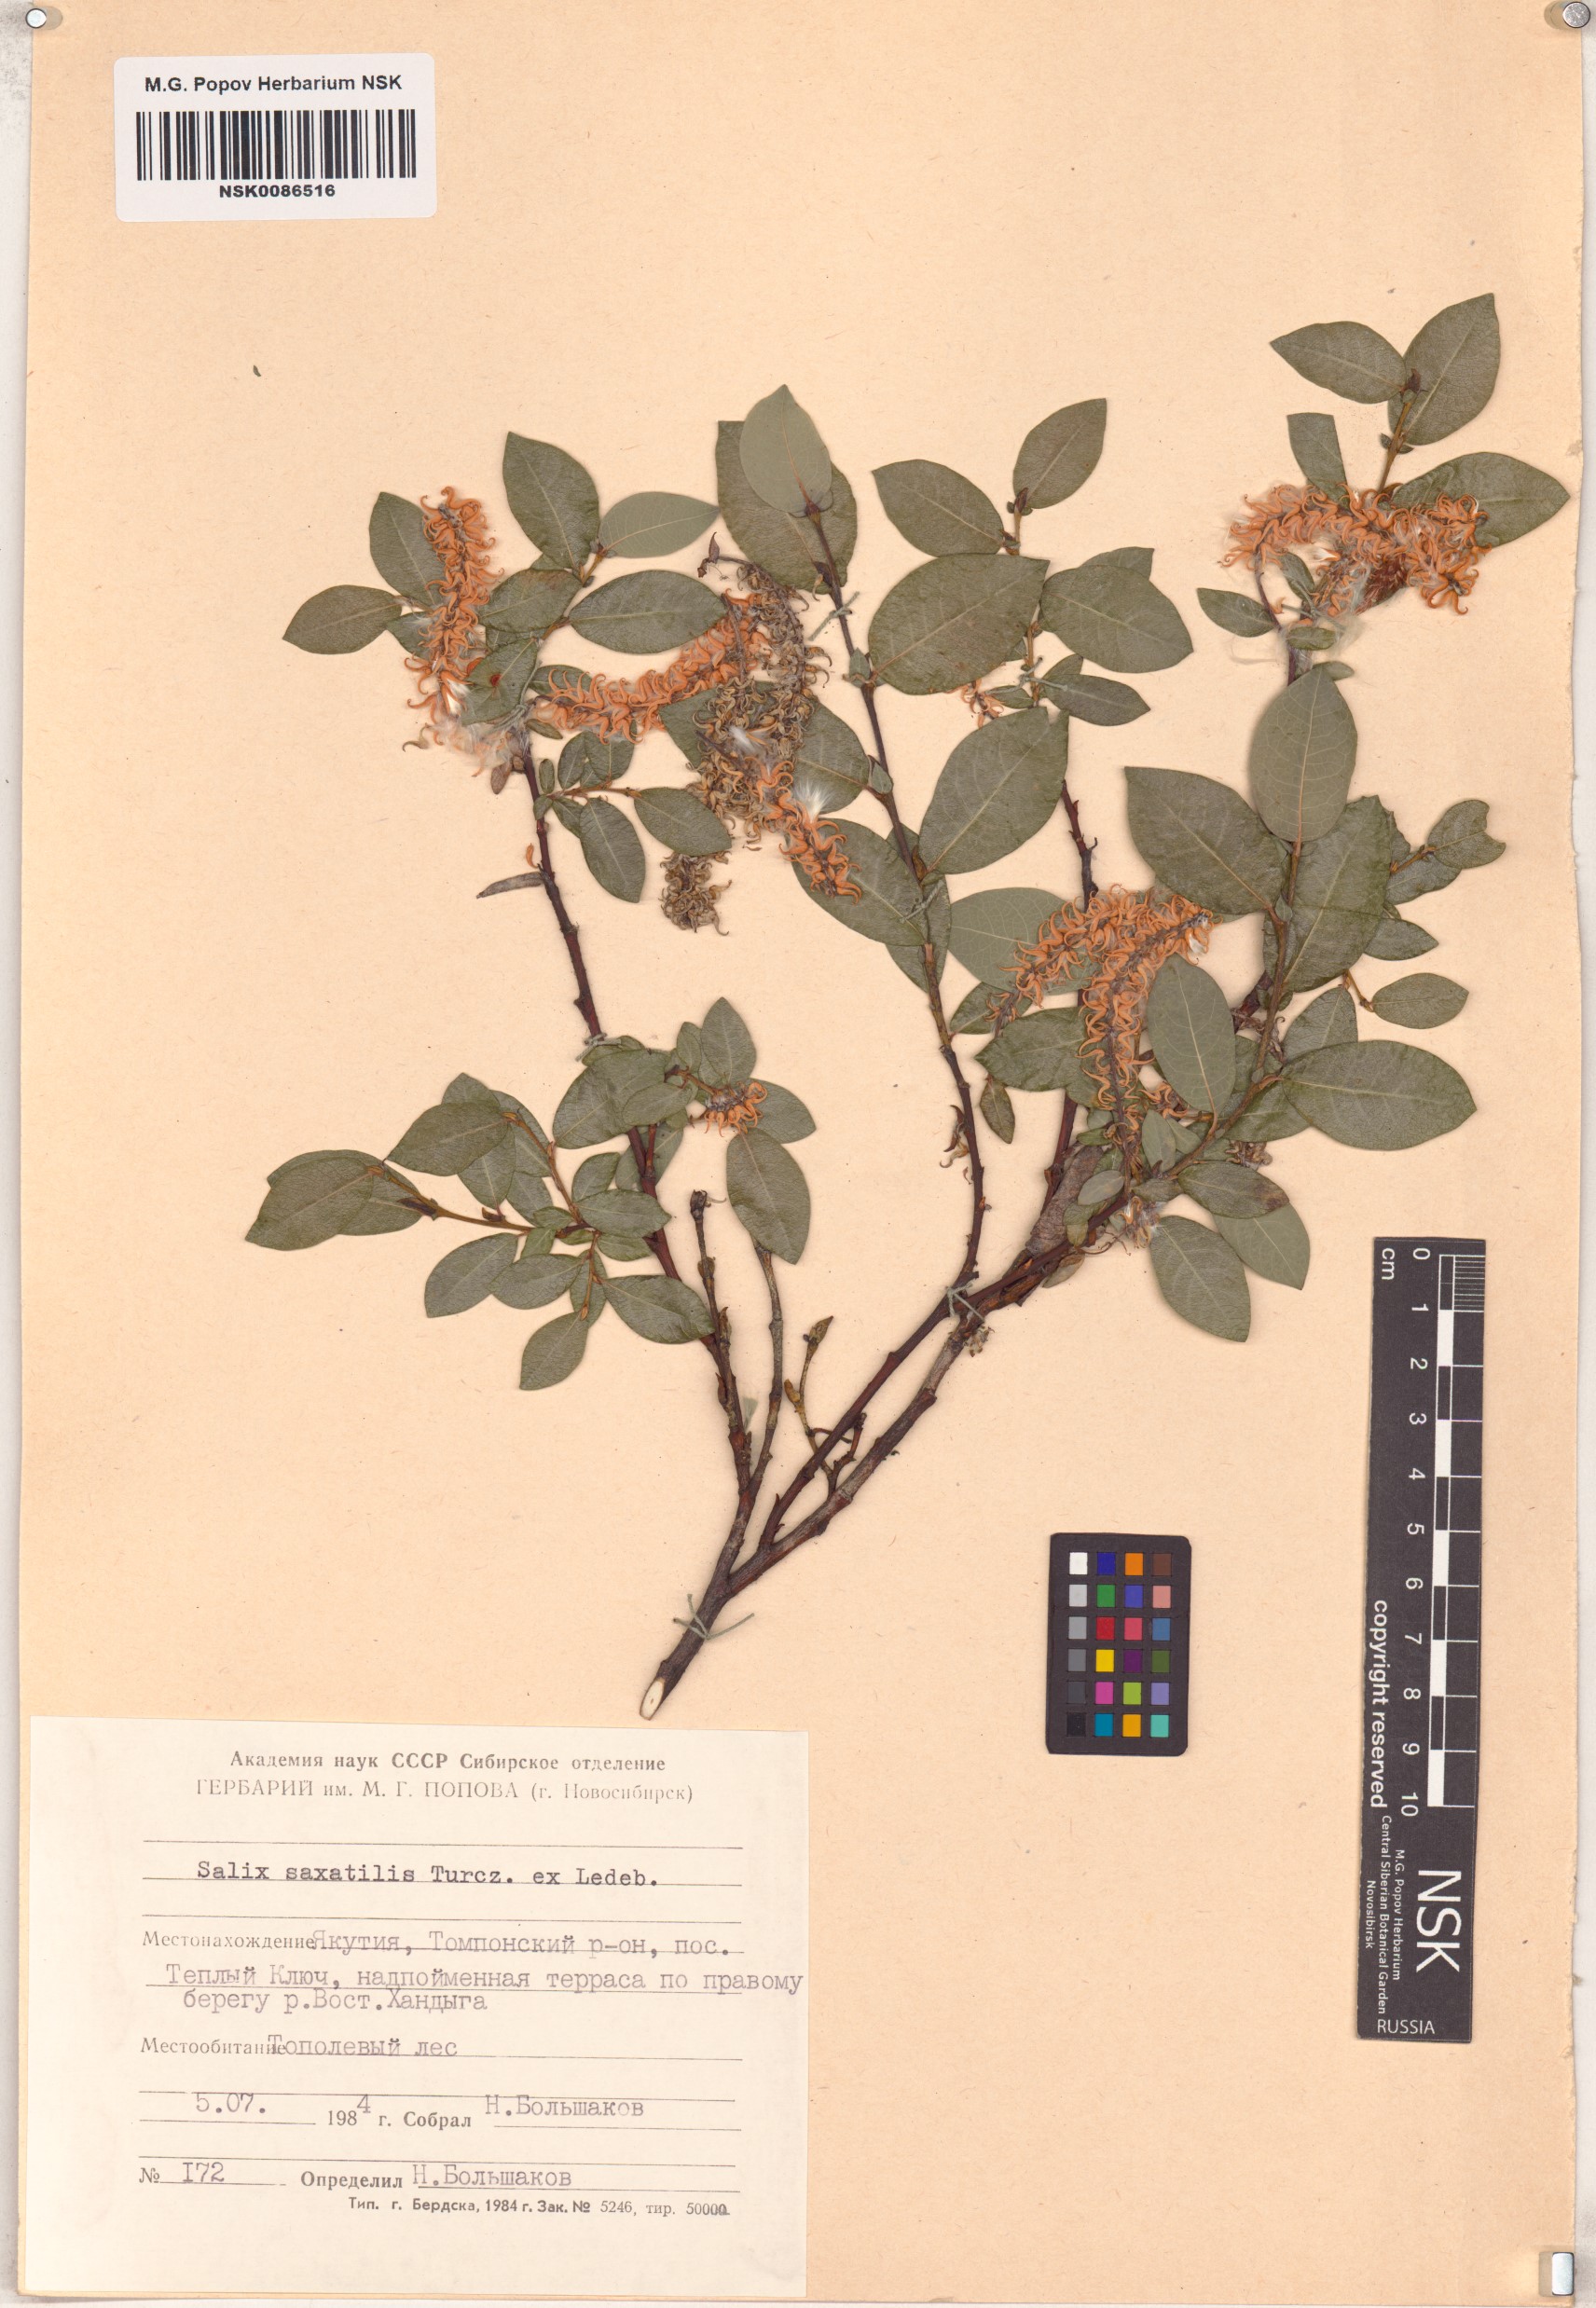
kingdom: Plantae
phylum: Tracheophyta
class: Magnoliopsida
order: Malpighiales
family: Salicaceae
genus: Salix
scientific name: Salix saxatilis
